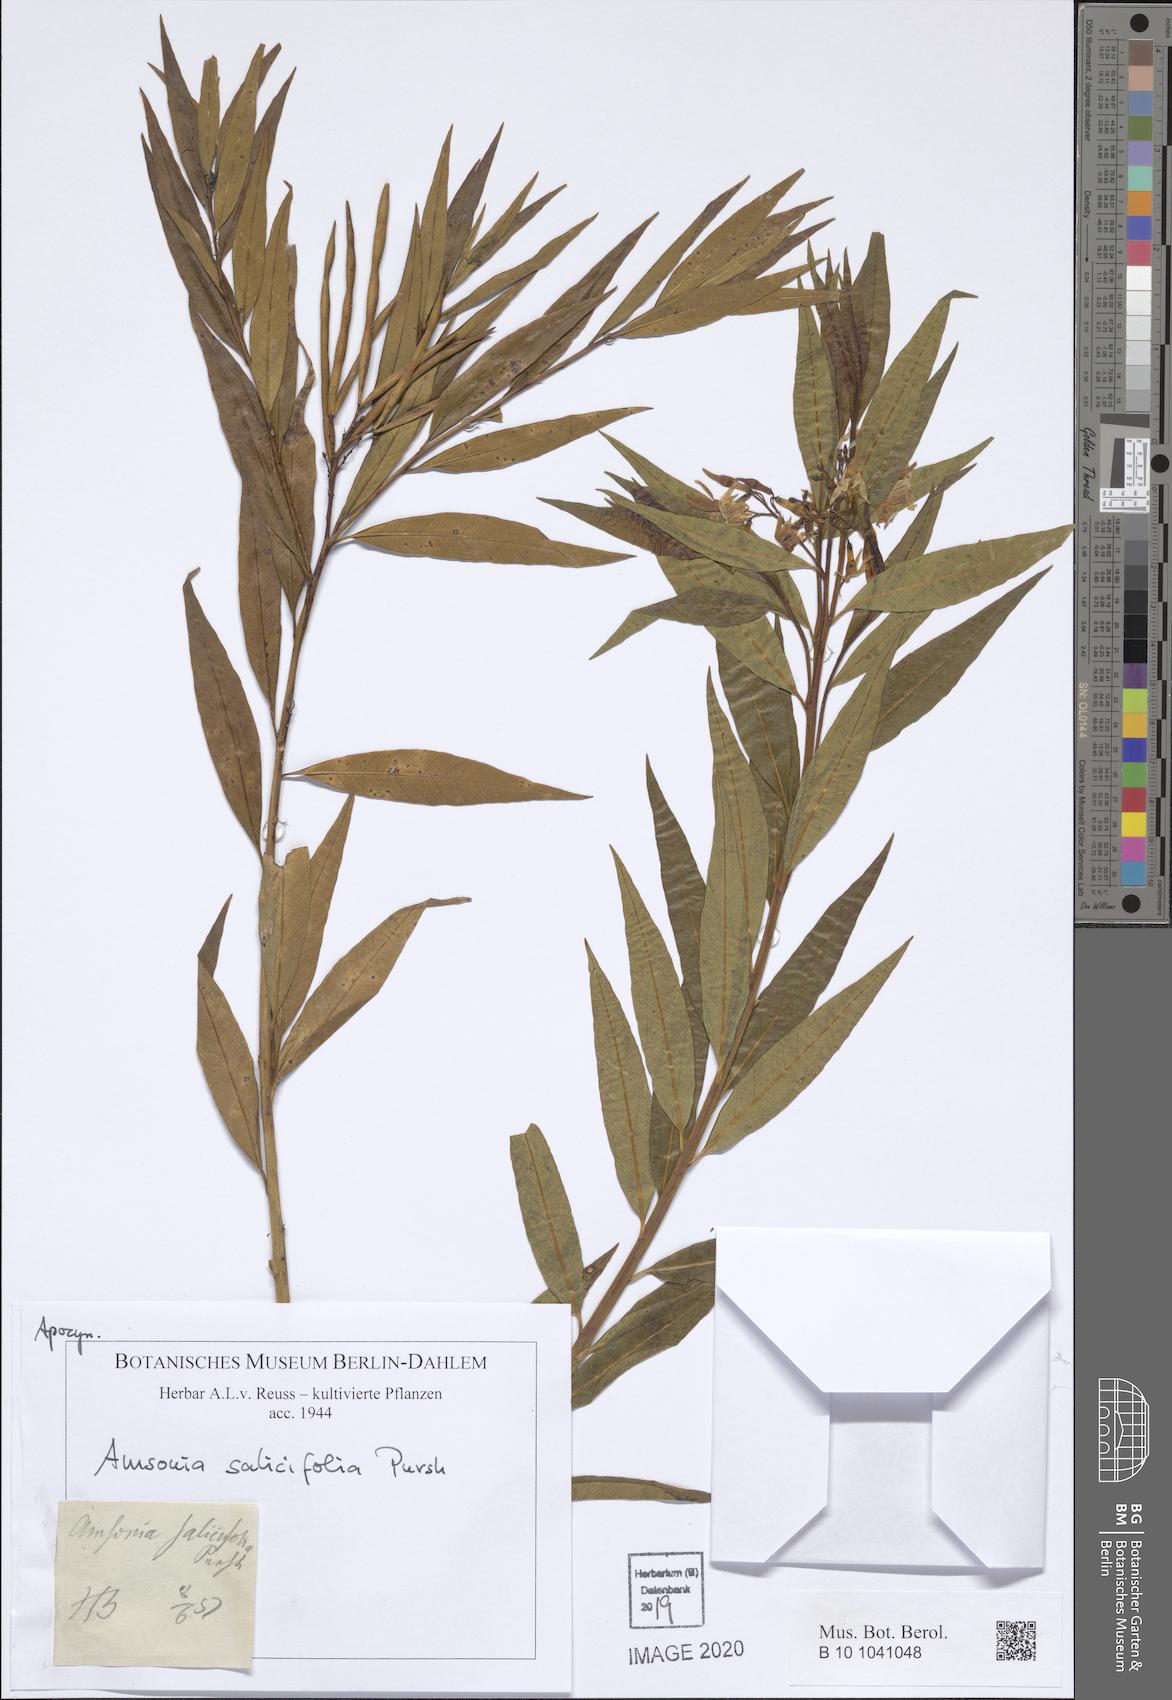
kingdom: Plantae
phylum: Tracheophyta
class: Magnoliopsida
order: Gentianales
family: Apocynaceae
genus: Amsonia
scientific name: Amsonia tabernaemontana
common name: Texas-star
